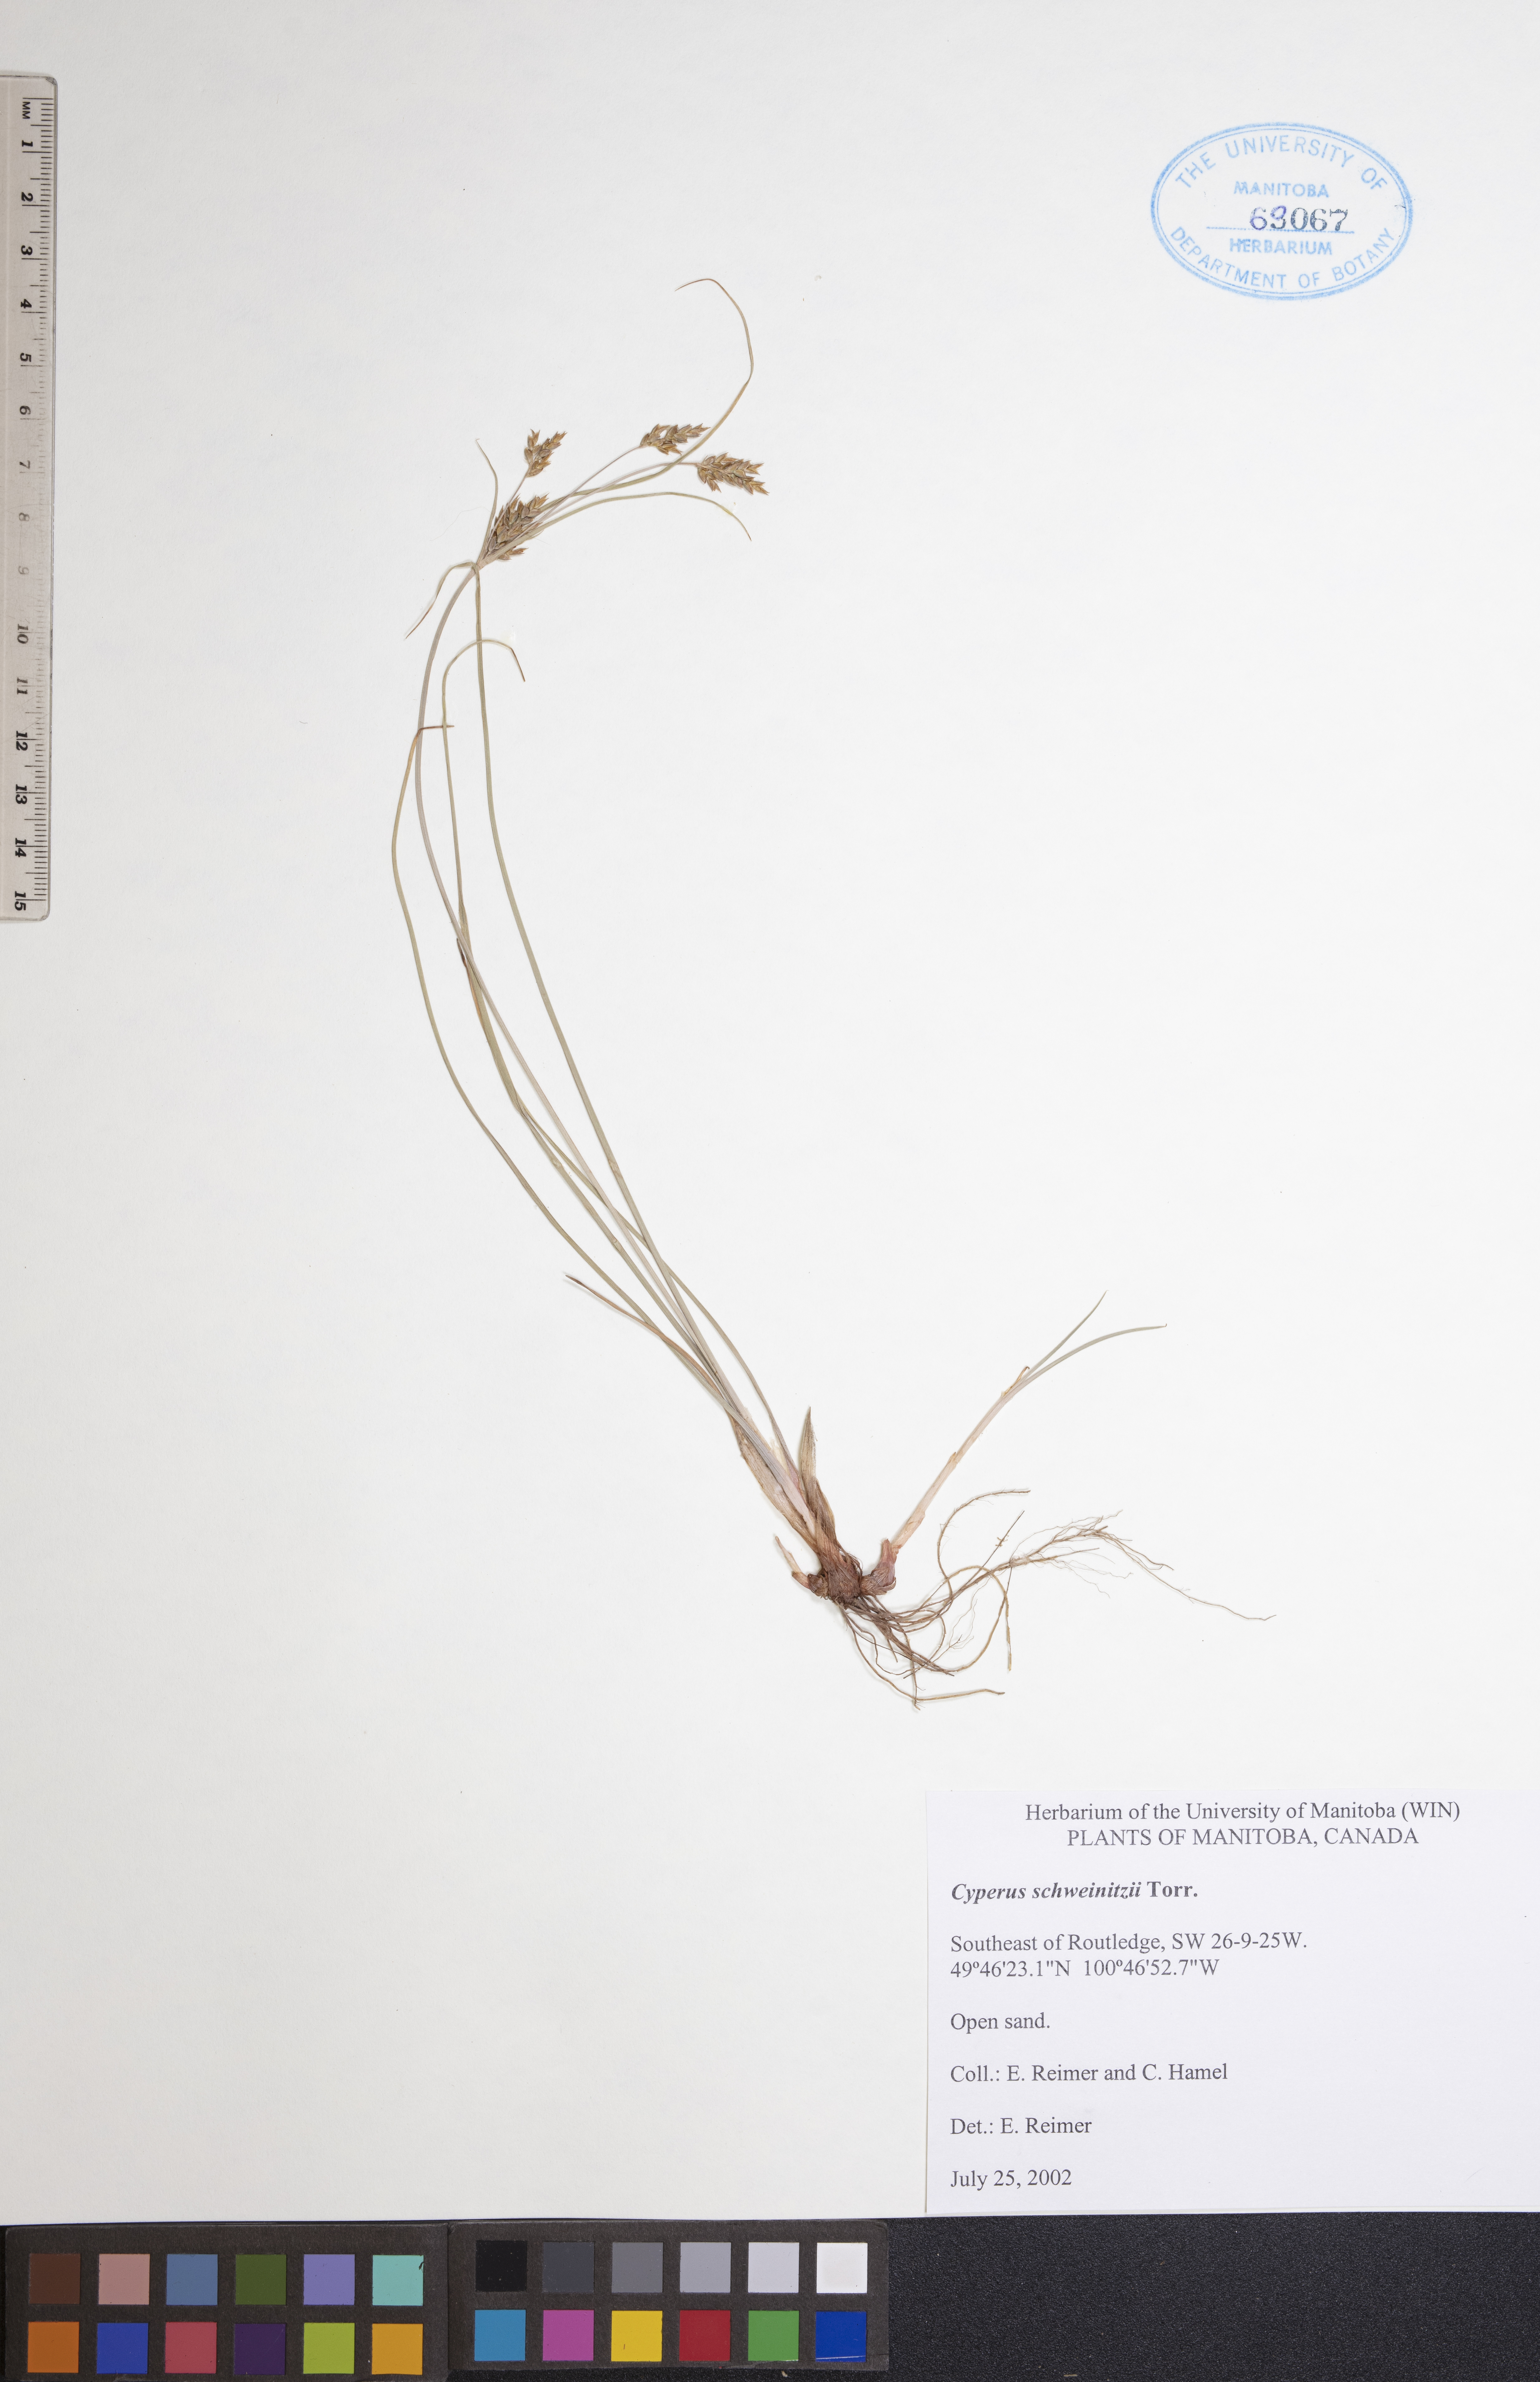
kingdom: Plantae
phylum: Tracheophyta
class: Liliopsida
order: Poales
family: Cyperaceae
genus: Cyperus
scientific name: Cyperus schweinitzii
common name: Schweinitz's cyperus
